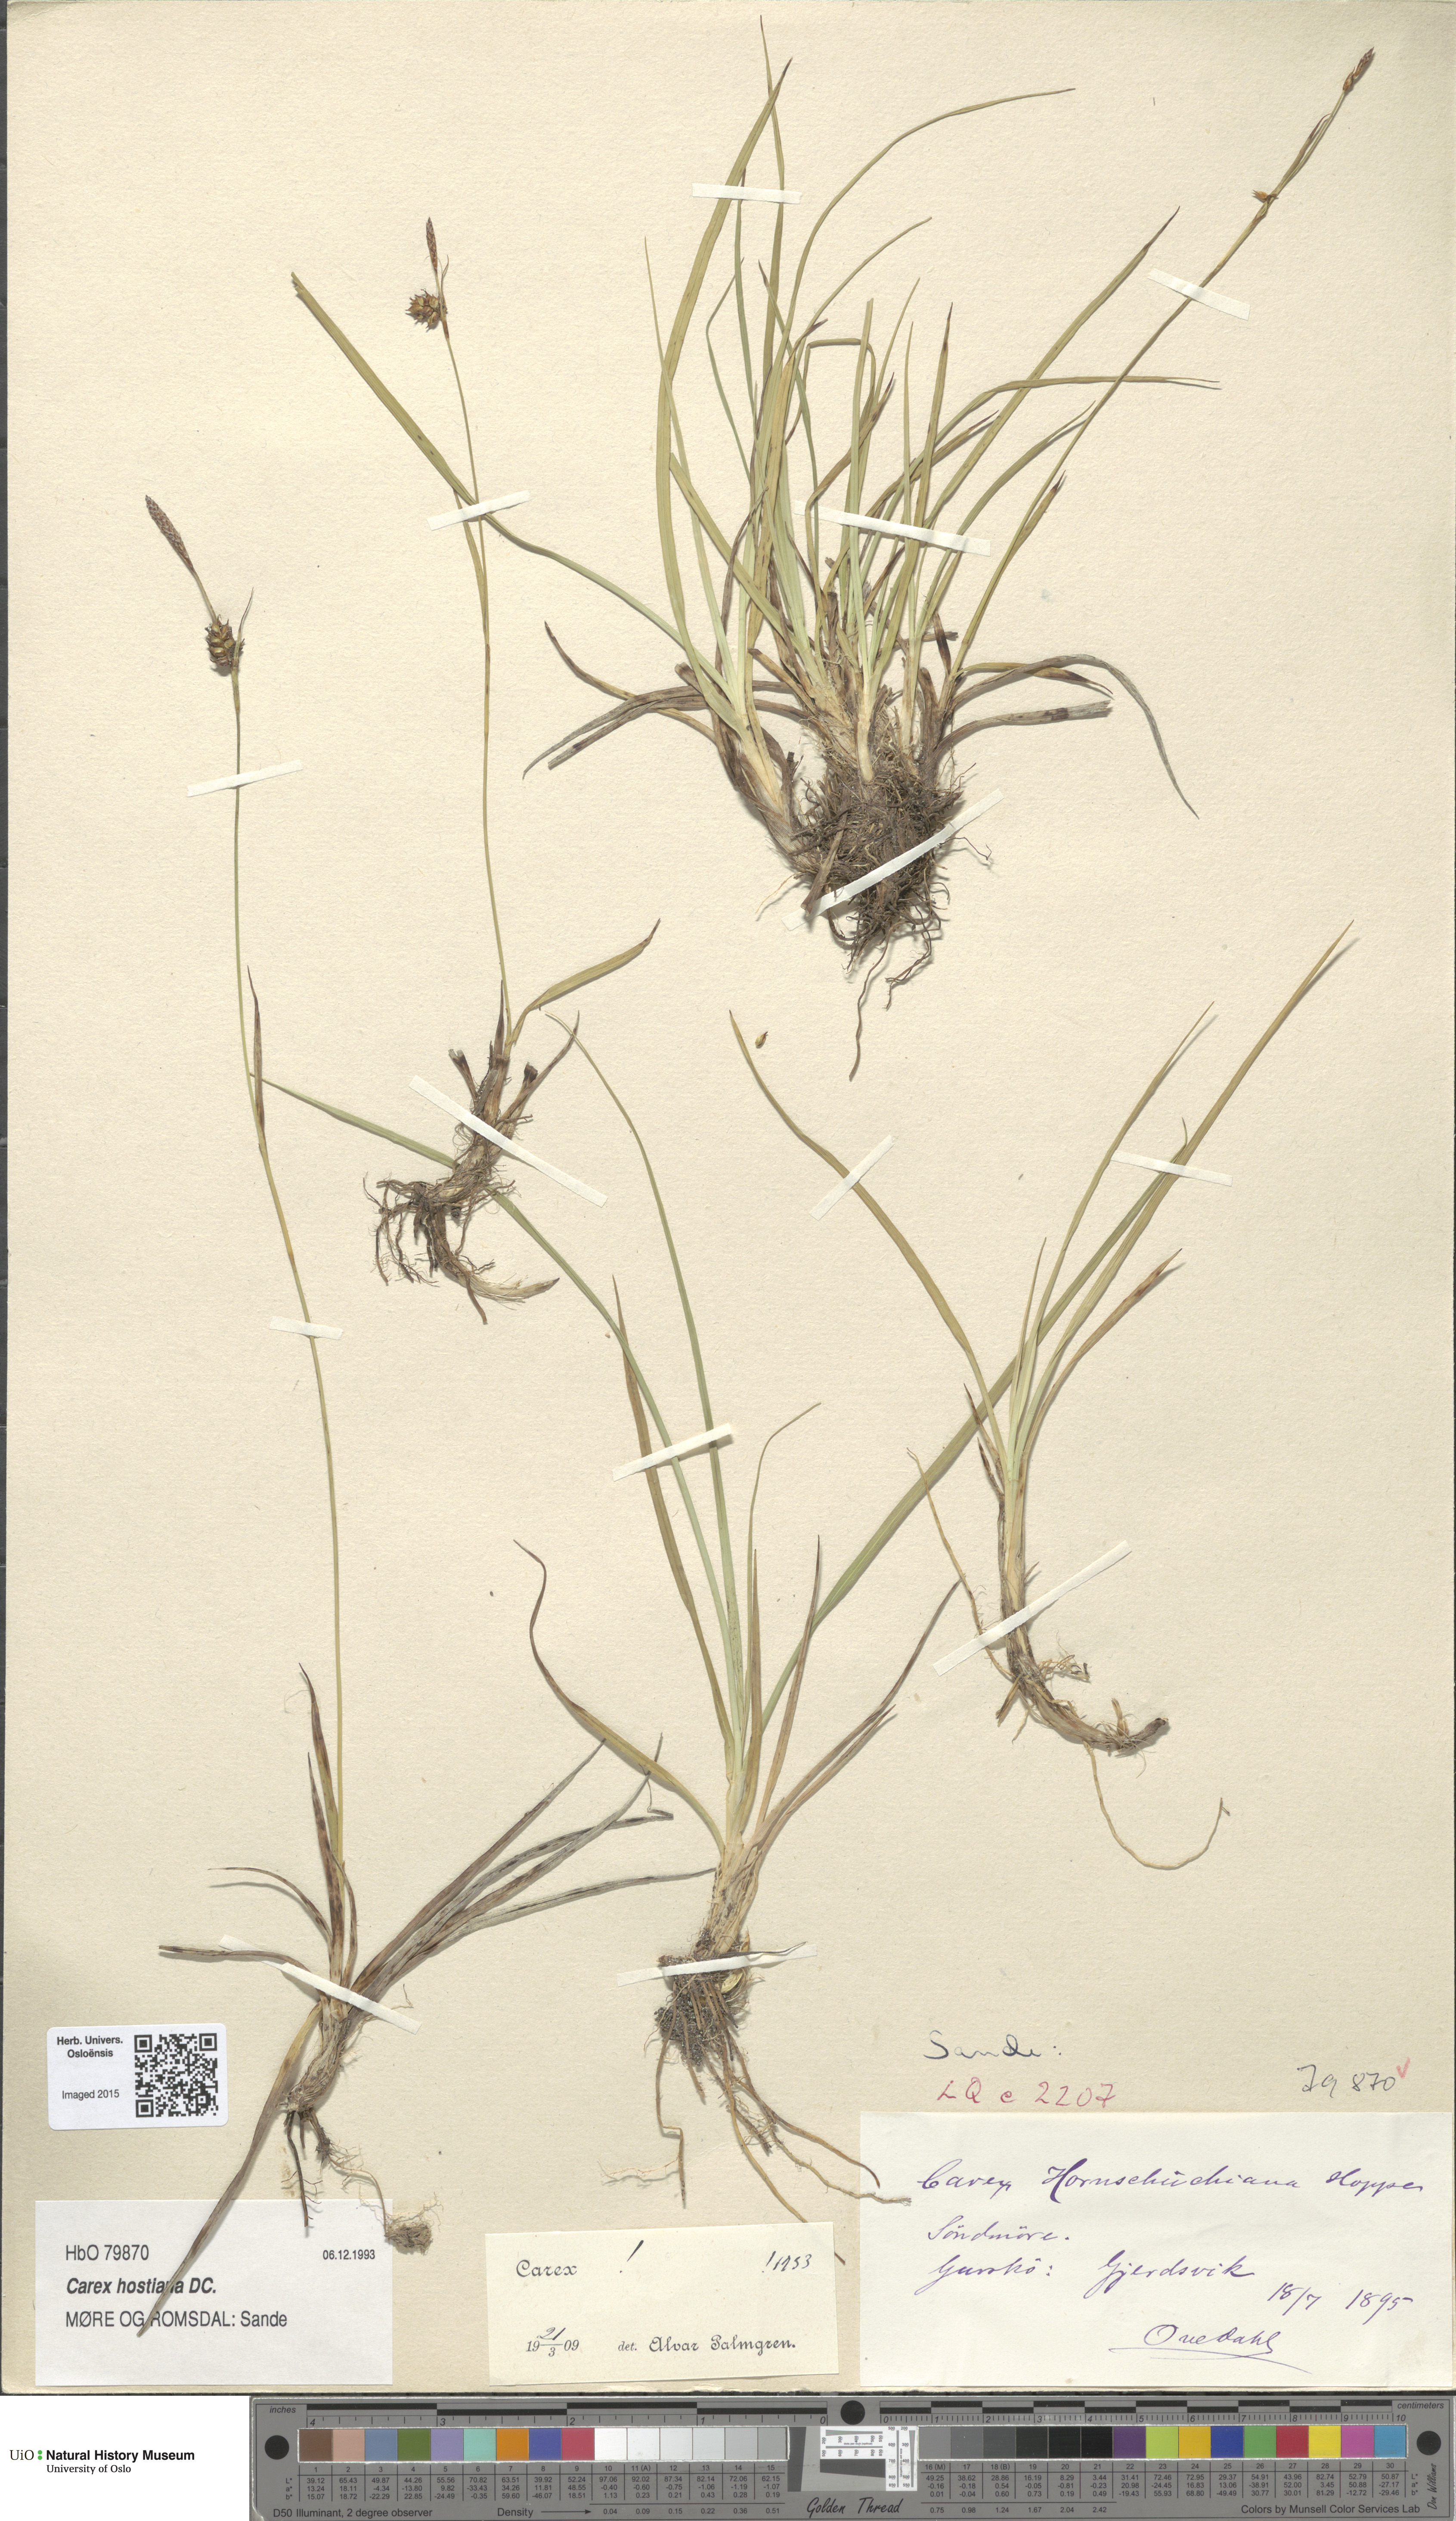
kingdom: Plantae
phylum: Tracheophyta
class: Liliopsida
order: Poales
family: Cyperaceae
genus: Carex
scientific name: Carex hostiana
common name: Tawny sedge
